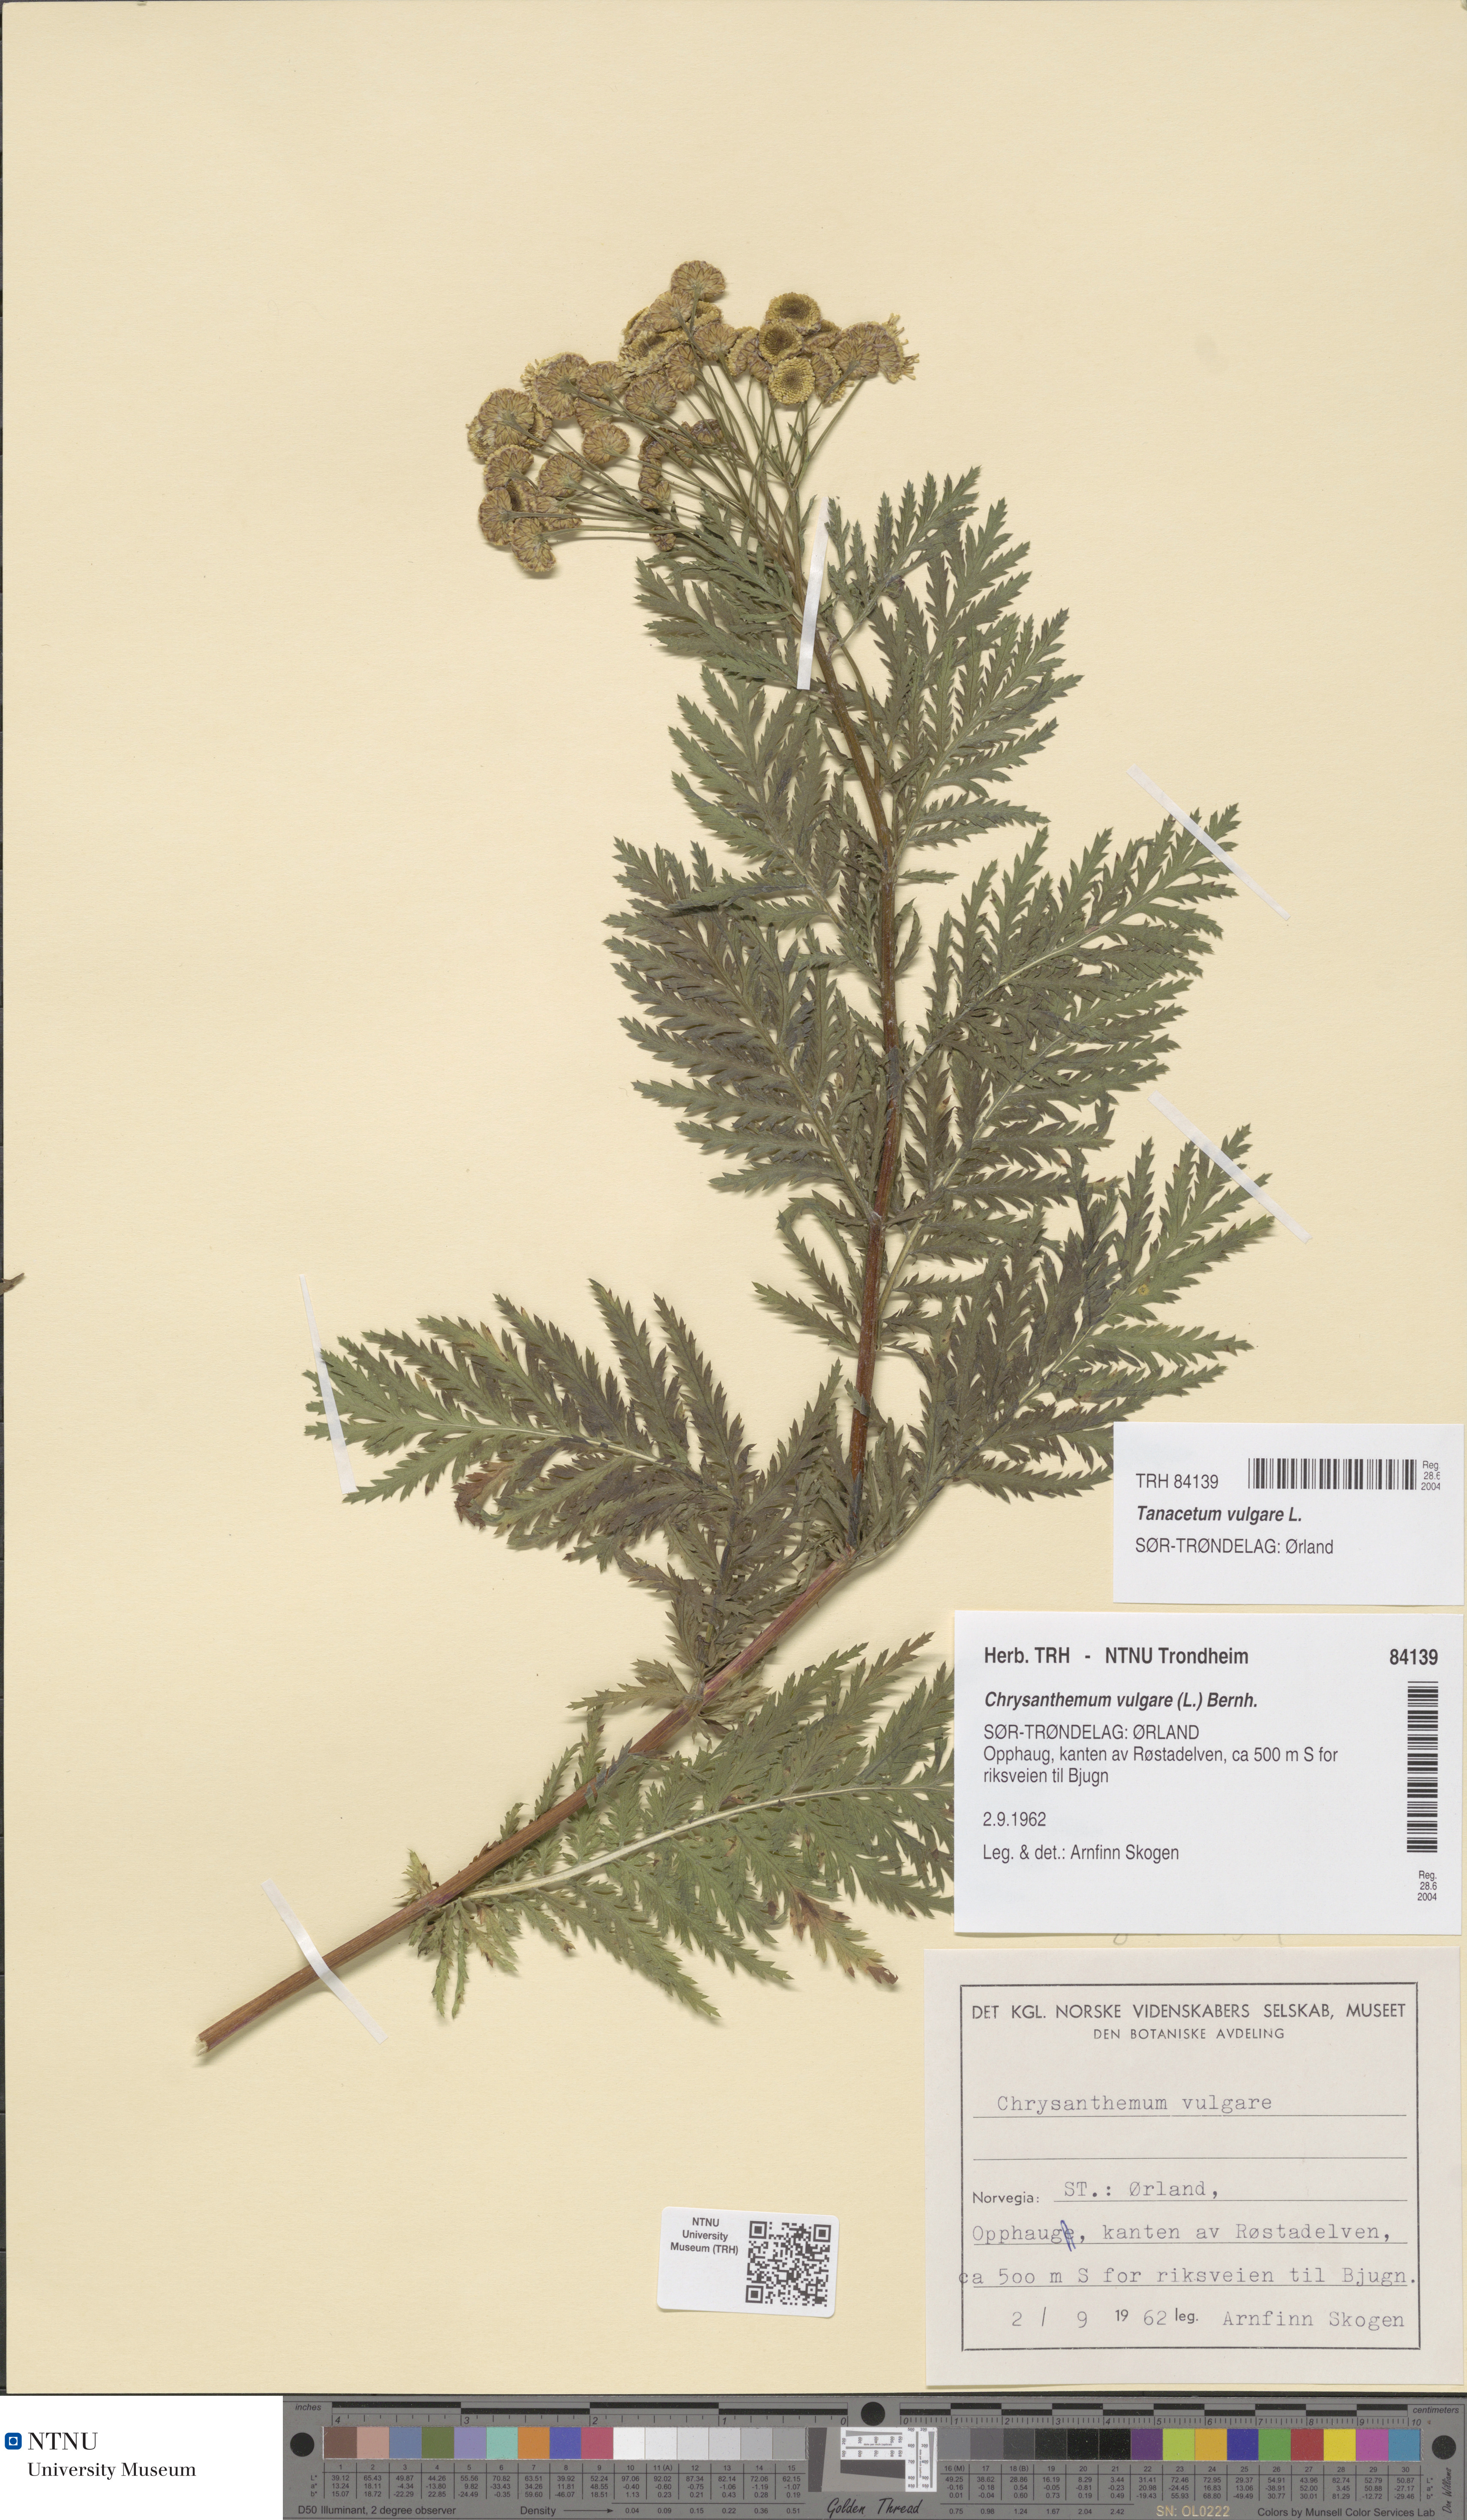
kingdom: Plantae
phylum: Tracheophyta
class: Magnoliopsida
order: Asterales
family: Asteraceae
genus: Tanacetum
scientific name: Tanacetum vulgare
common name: Common tansy
